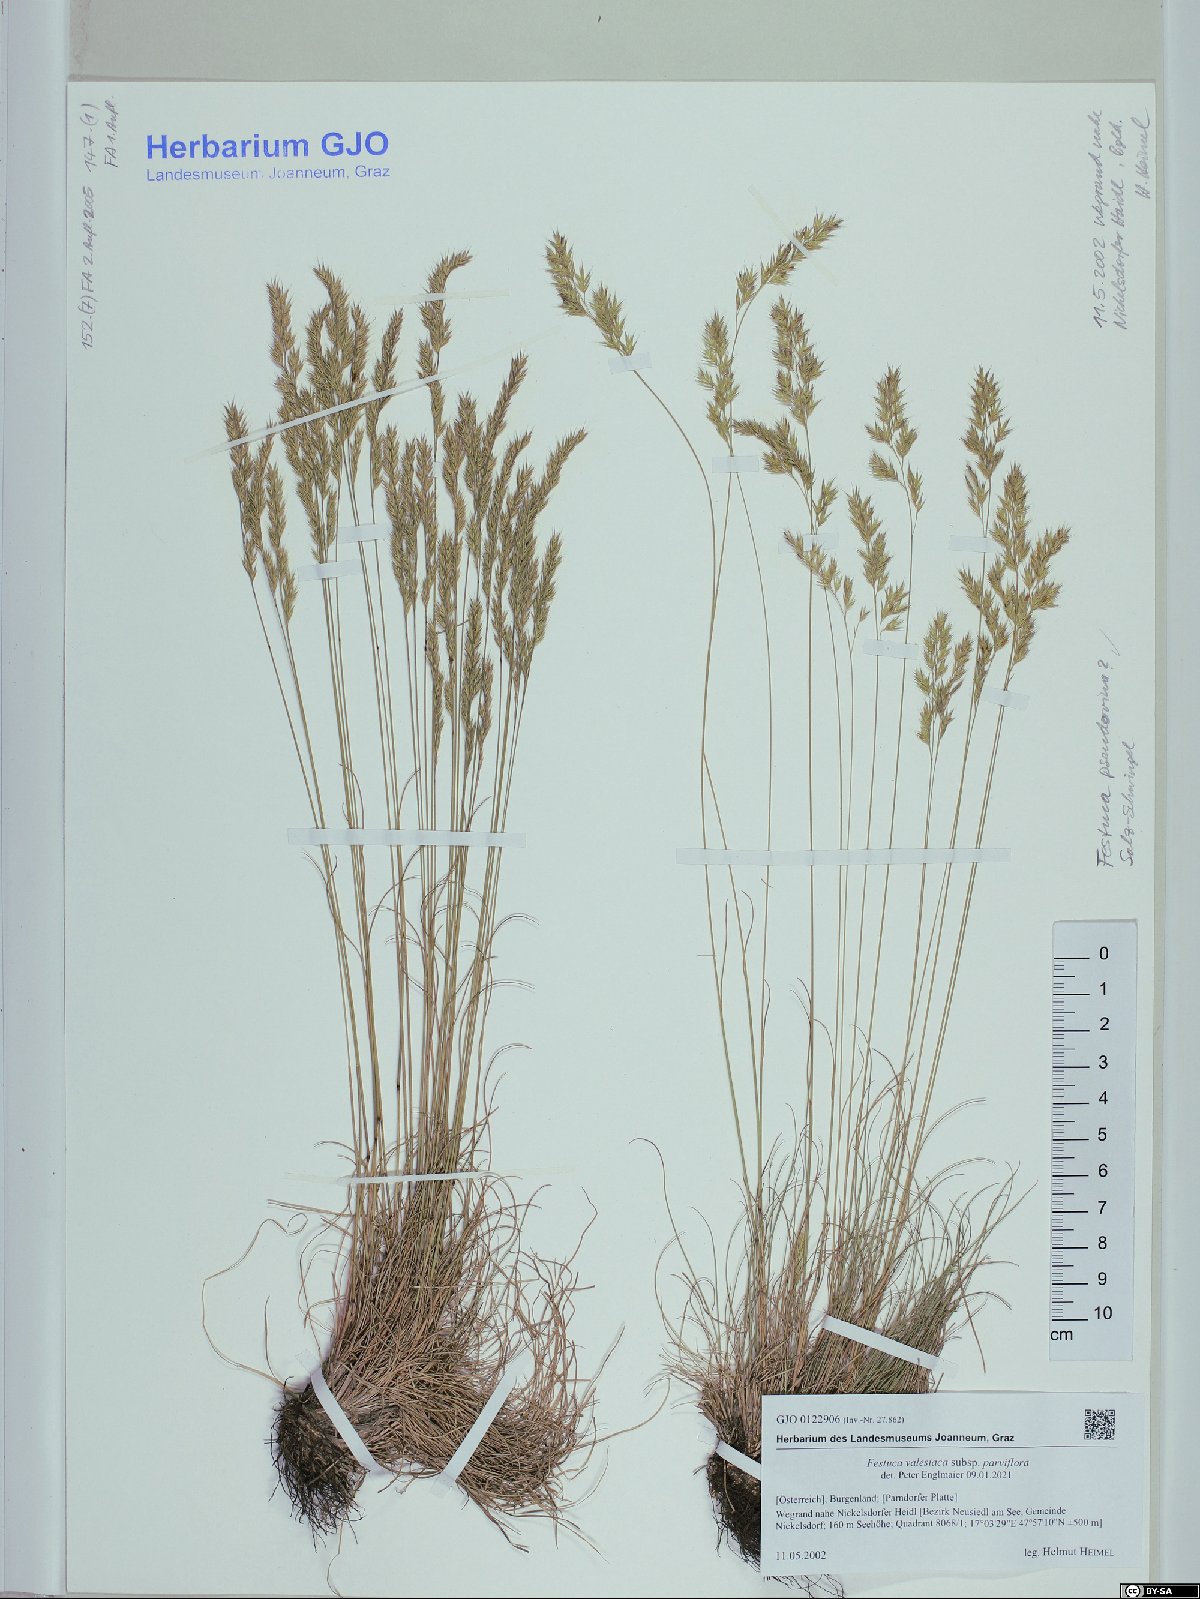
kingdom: Plantae
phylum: Tracheophyta
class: Liliopsida
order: Poales
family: Poaceae
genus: Festuca
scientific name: Festuca pulchra
